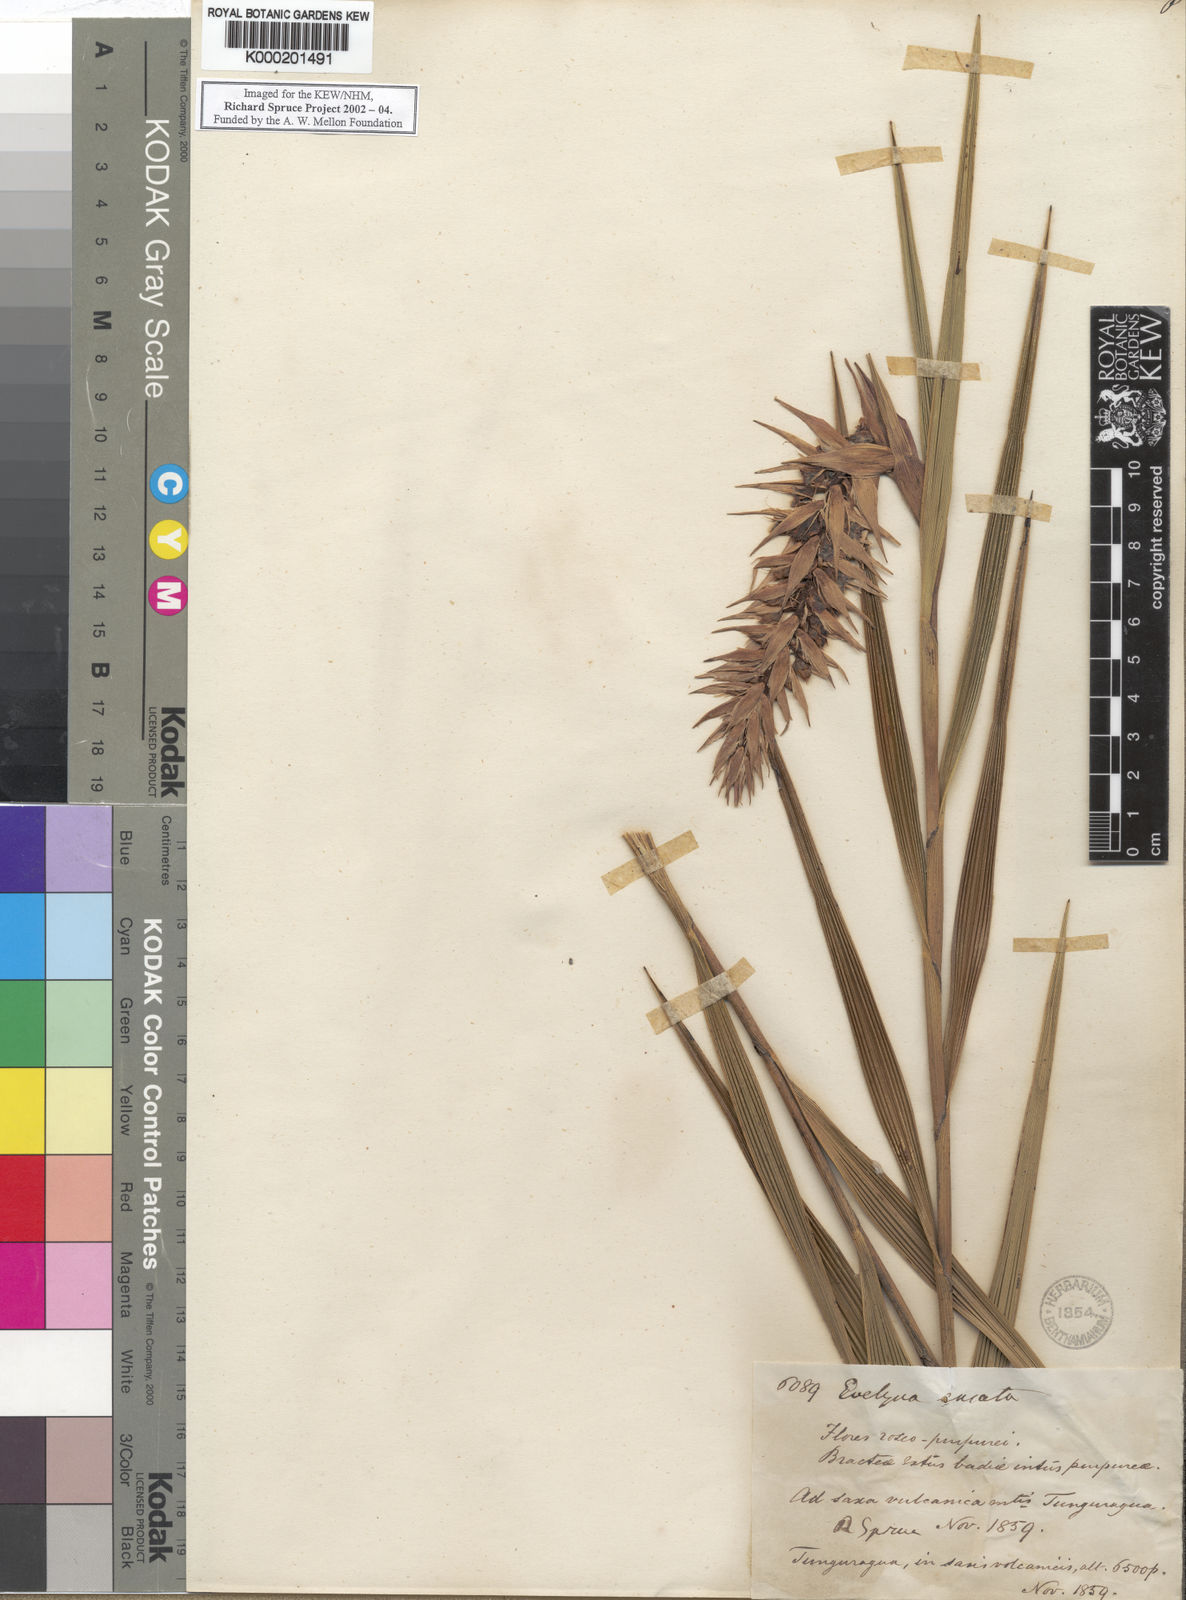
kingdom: Plantae
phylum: Tracheophyta
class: Liliopsida
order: Asparagales
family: Orchidaceae
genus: Elleanthus
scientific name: Elleanthus rhodolepis
